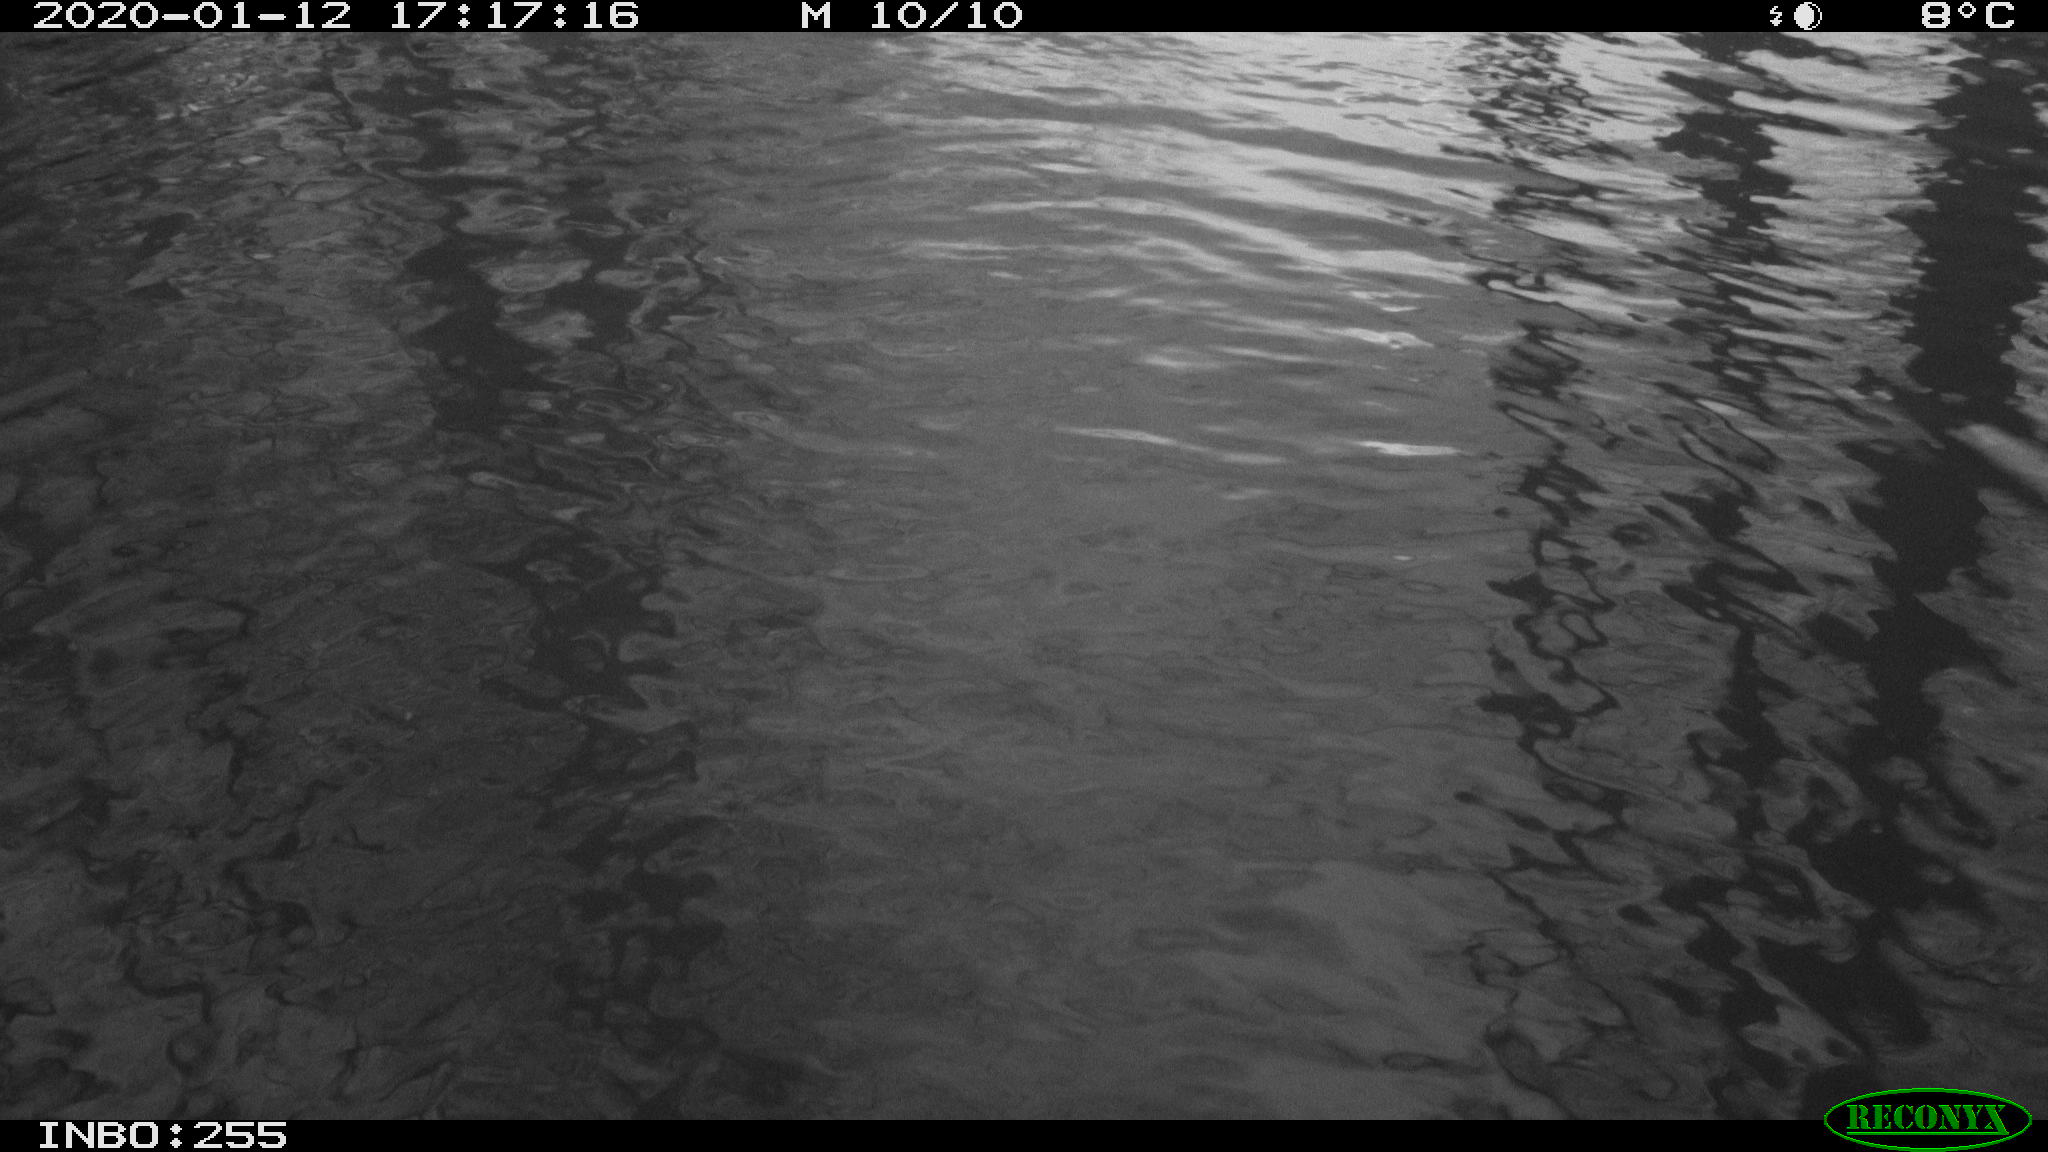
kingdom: Animalia
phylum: Chordata
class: Aves
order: Anseriformes
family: Anatidae
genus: Anas
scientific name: Anas platyrhynchos
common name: Mallard
